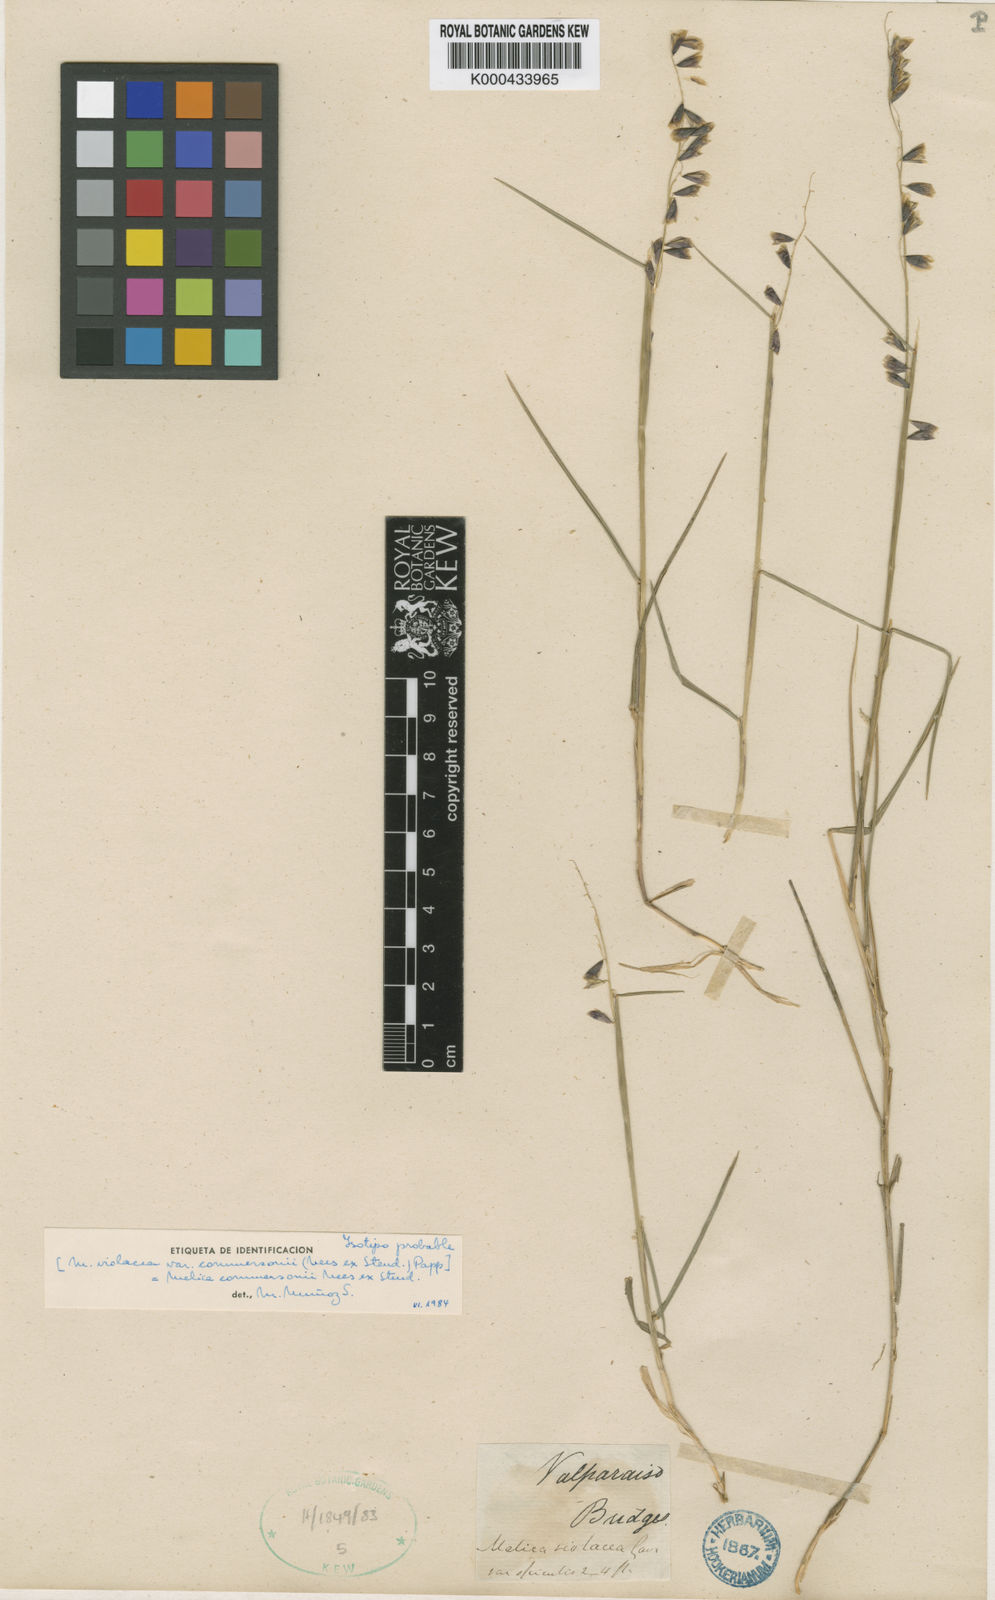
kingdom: Plantae
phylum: Tracheophyta
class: Liliopsida
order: Poales
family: Poaceae
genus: Melica
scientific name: Melica commersonii
